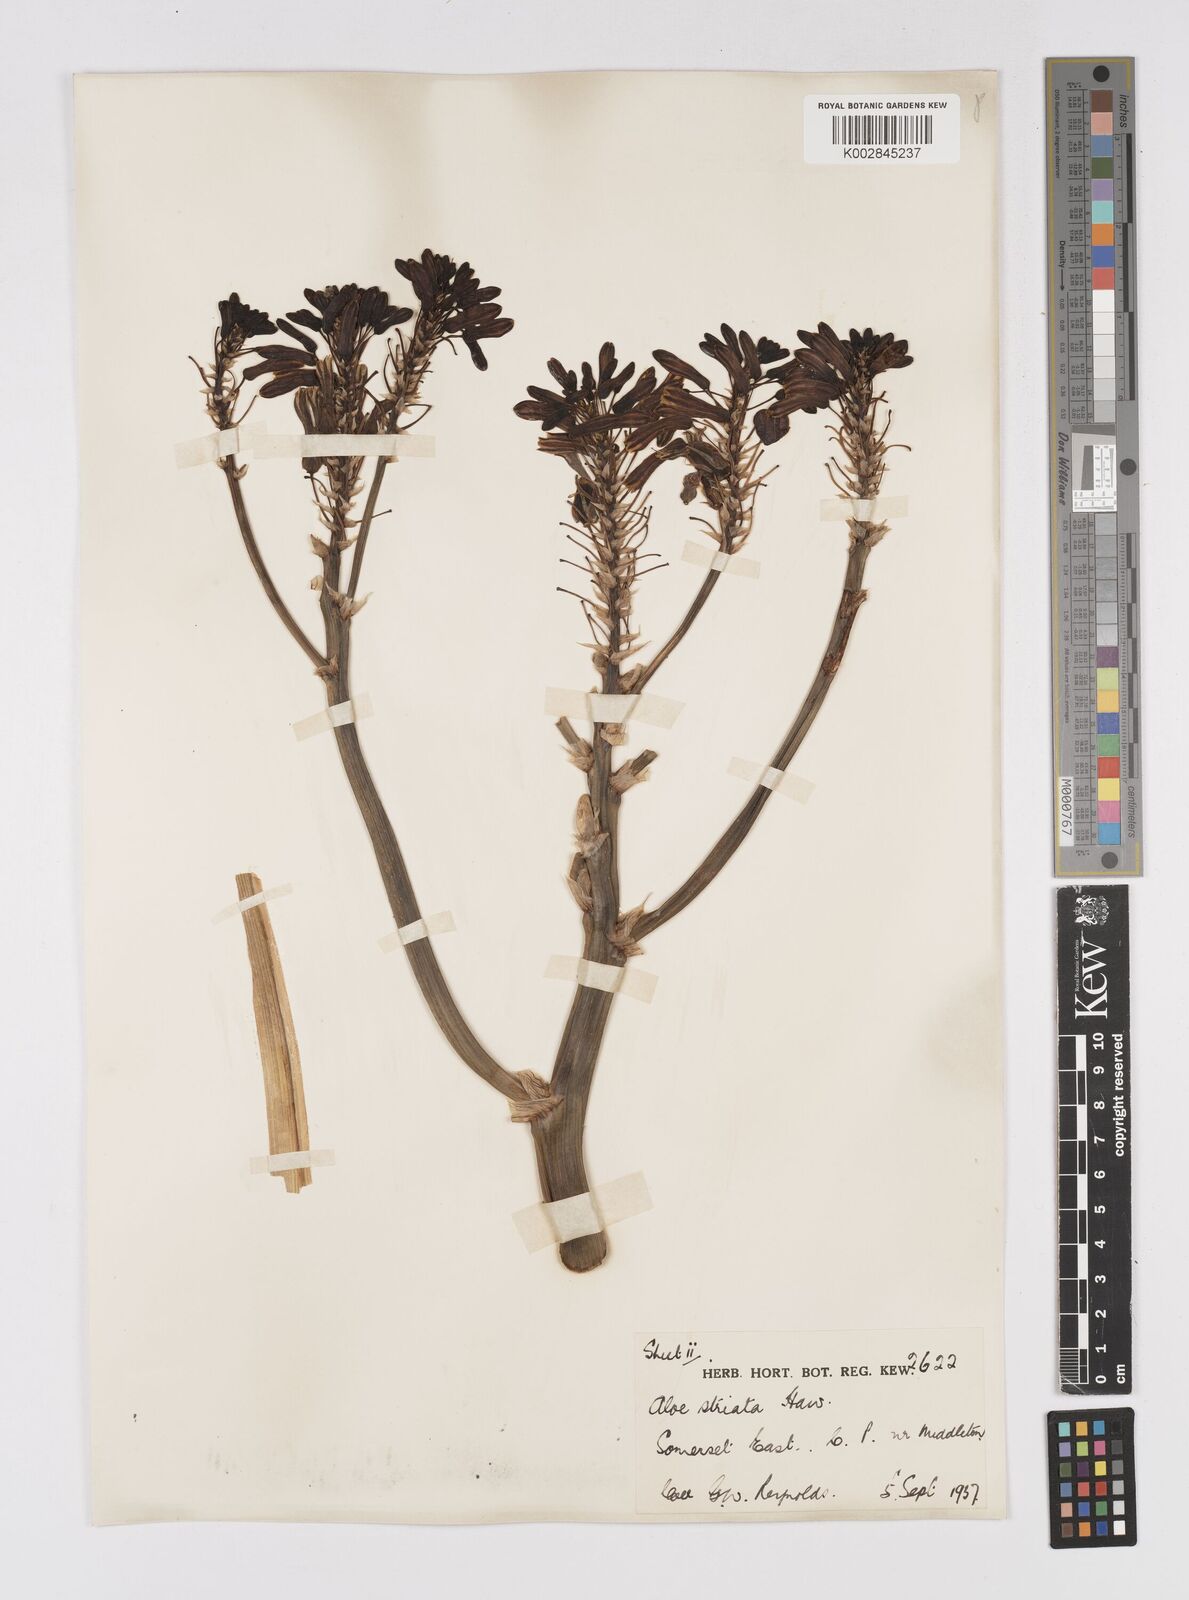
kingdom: Plantae
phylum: Tracheophyta
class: Liliopsida
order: Asparagales
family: Asphodelaceae
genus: Aloe
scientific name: Aloe striata
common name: Coral aloe
